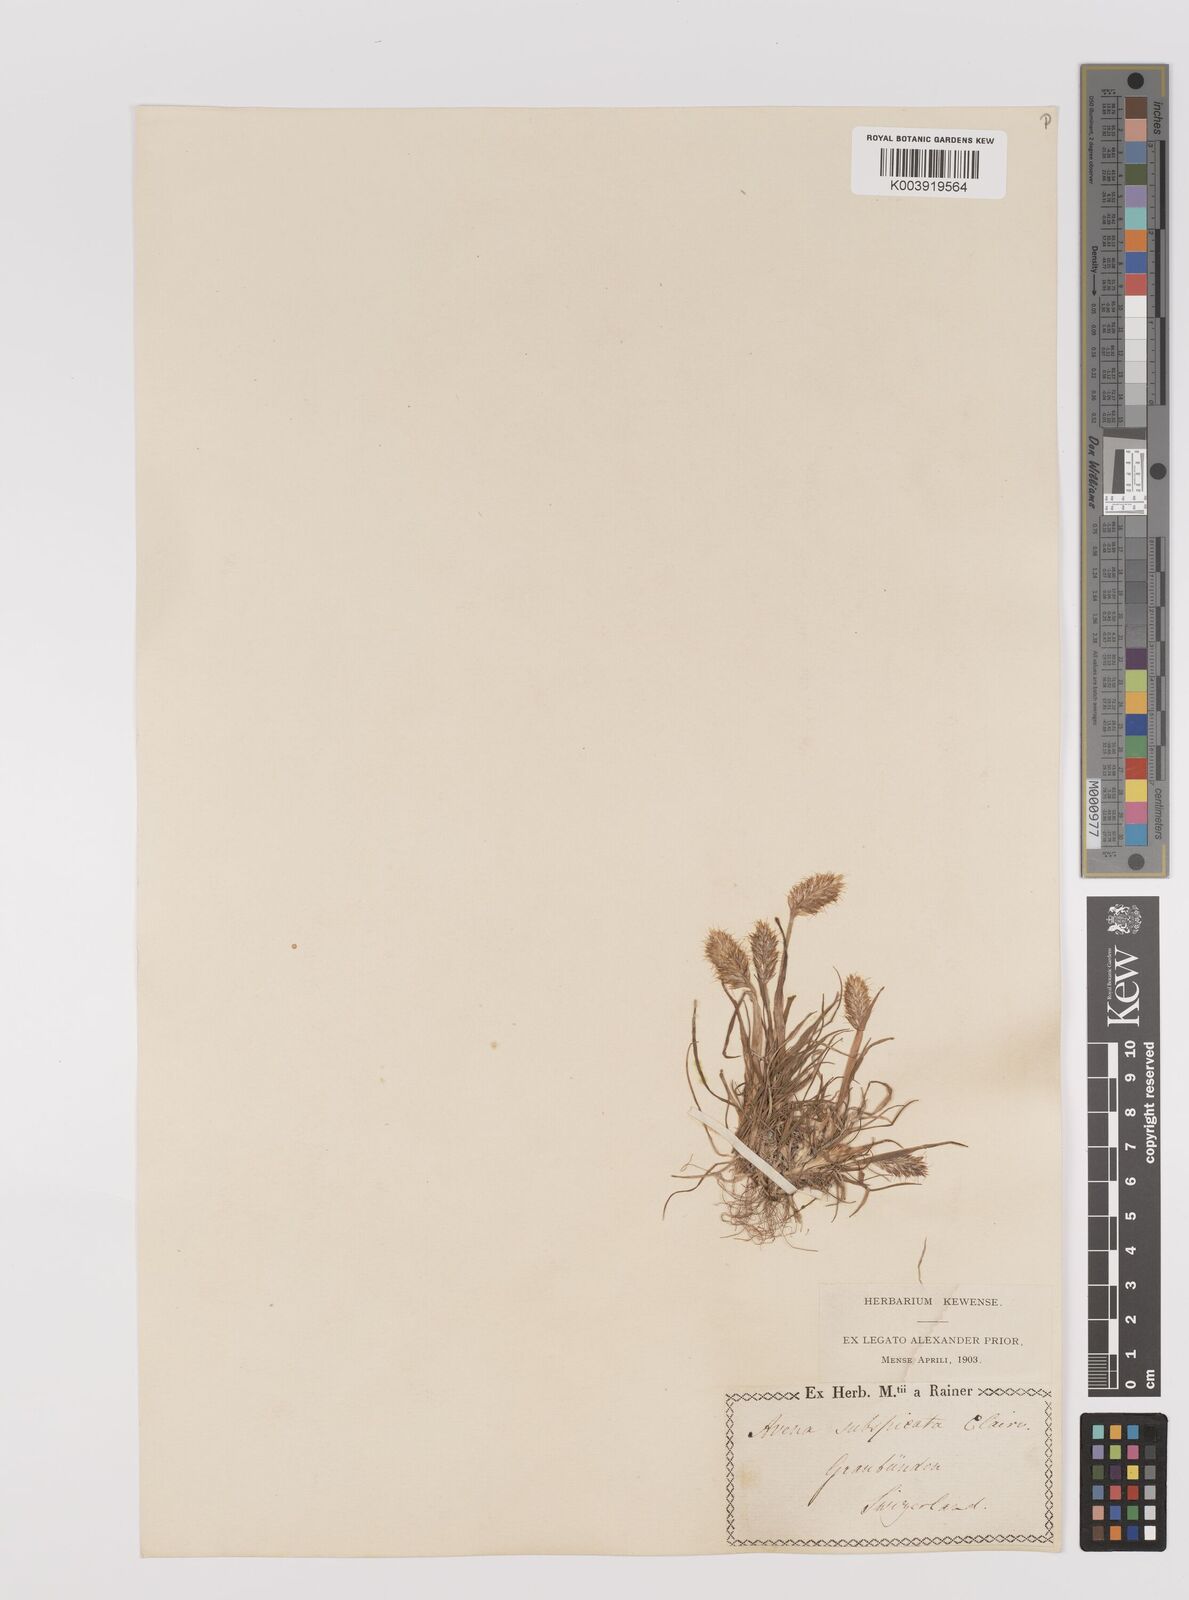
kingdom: Plantae
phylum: Tracheophyta
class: Liliopsida
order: Poales
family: Poaceae
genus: Koeleria
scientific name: Koeleria spicata
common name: Mountain trisetum
